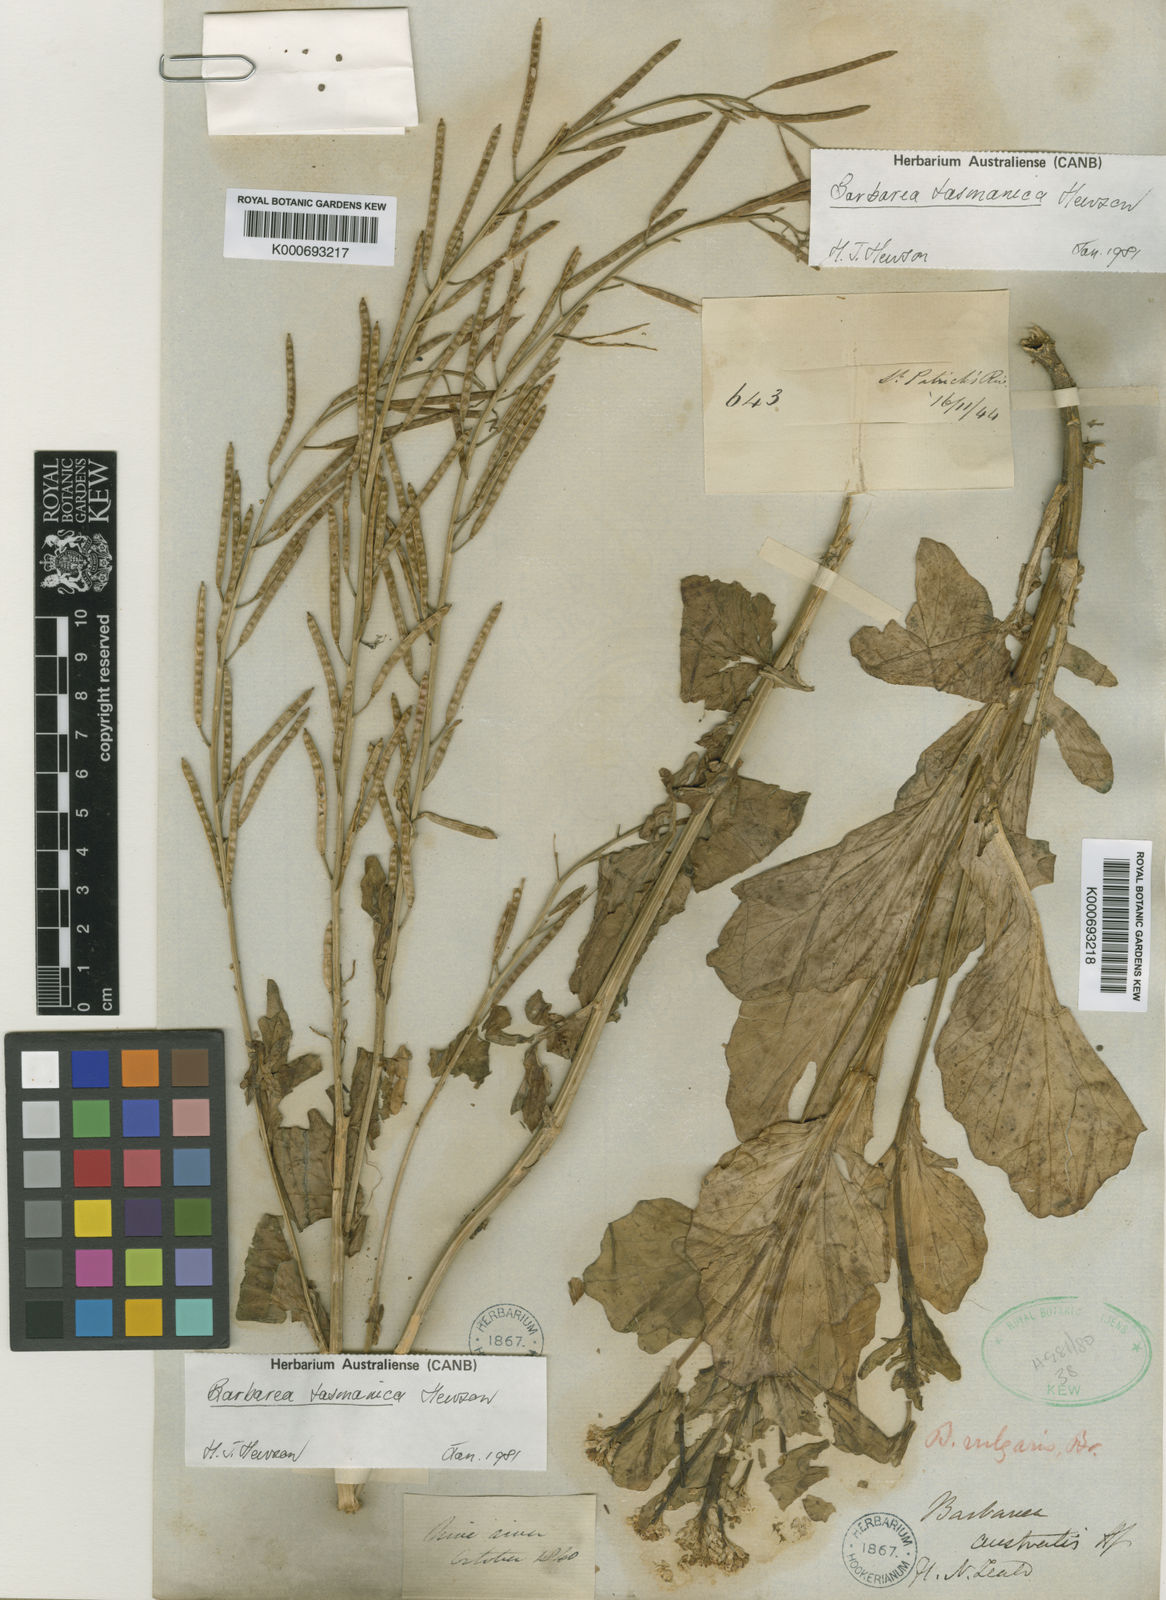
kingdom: Plantae
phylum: Tracheophyta
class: Magnoliopsida
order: Brassicales
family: Brassicaceae
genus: Barbarea
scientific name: Barbarea australis
